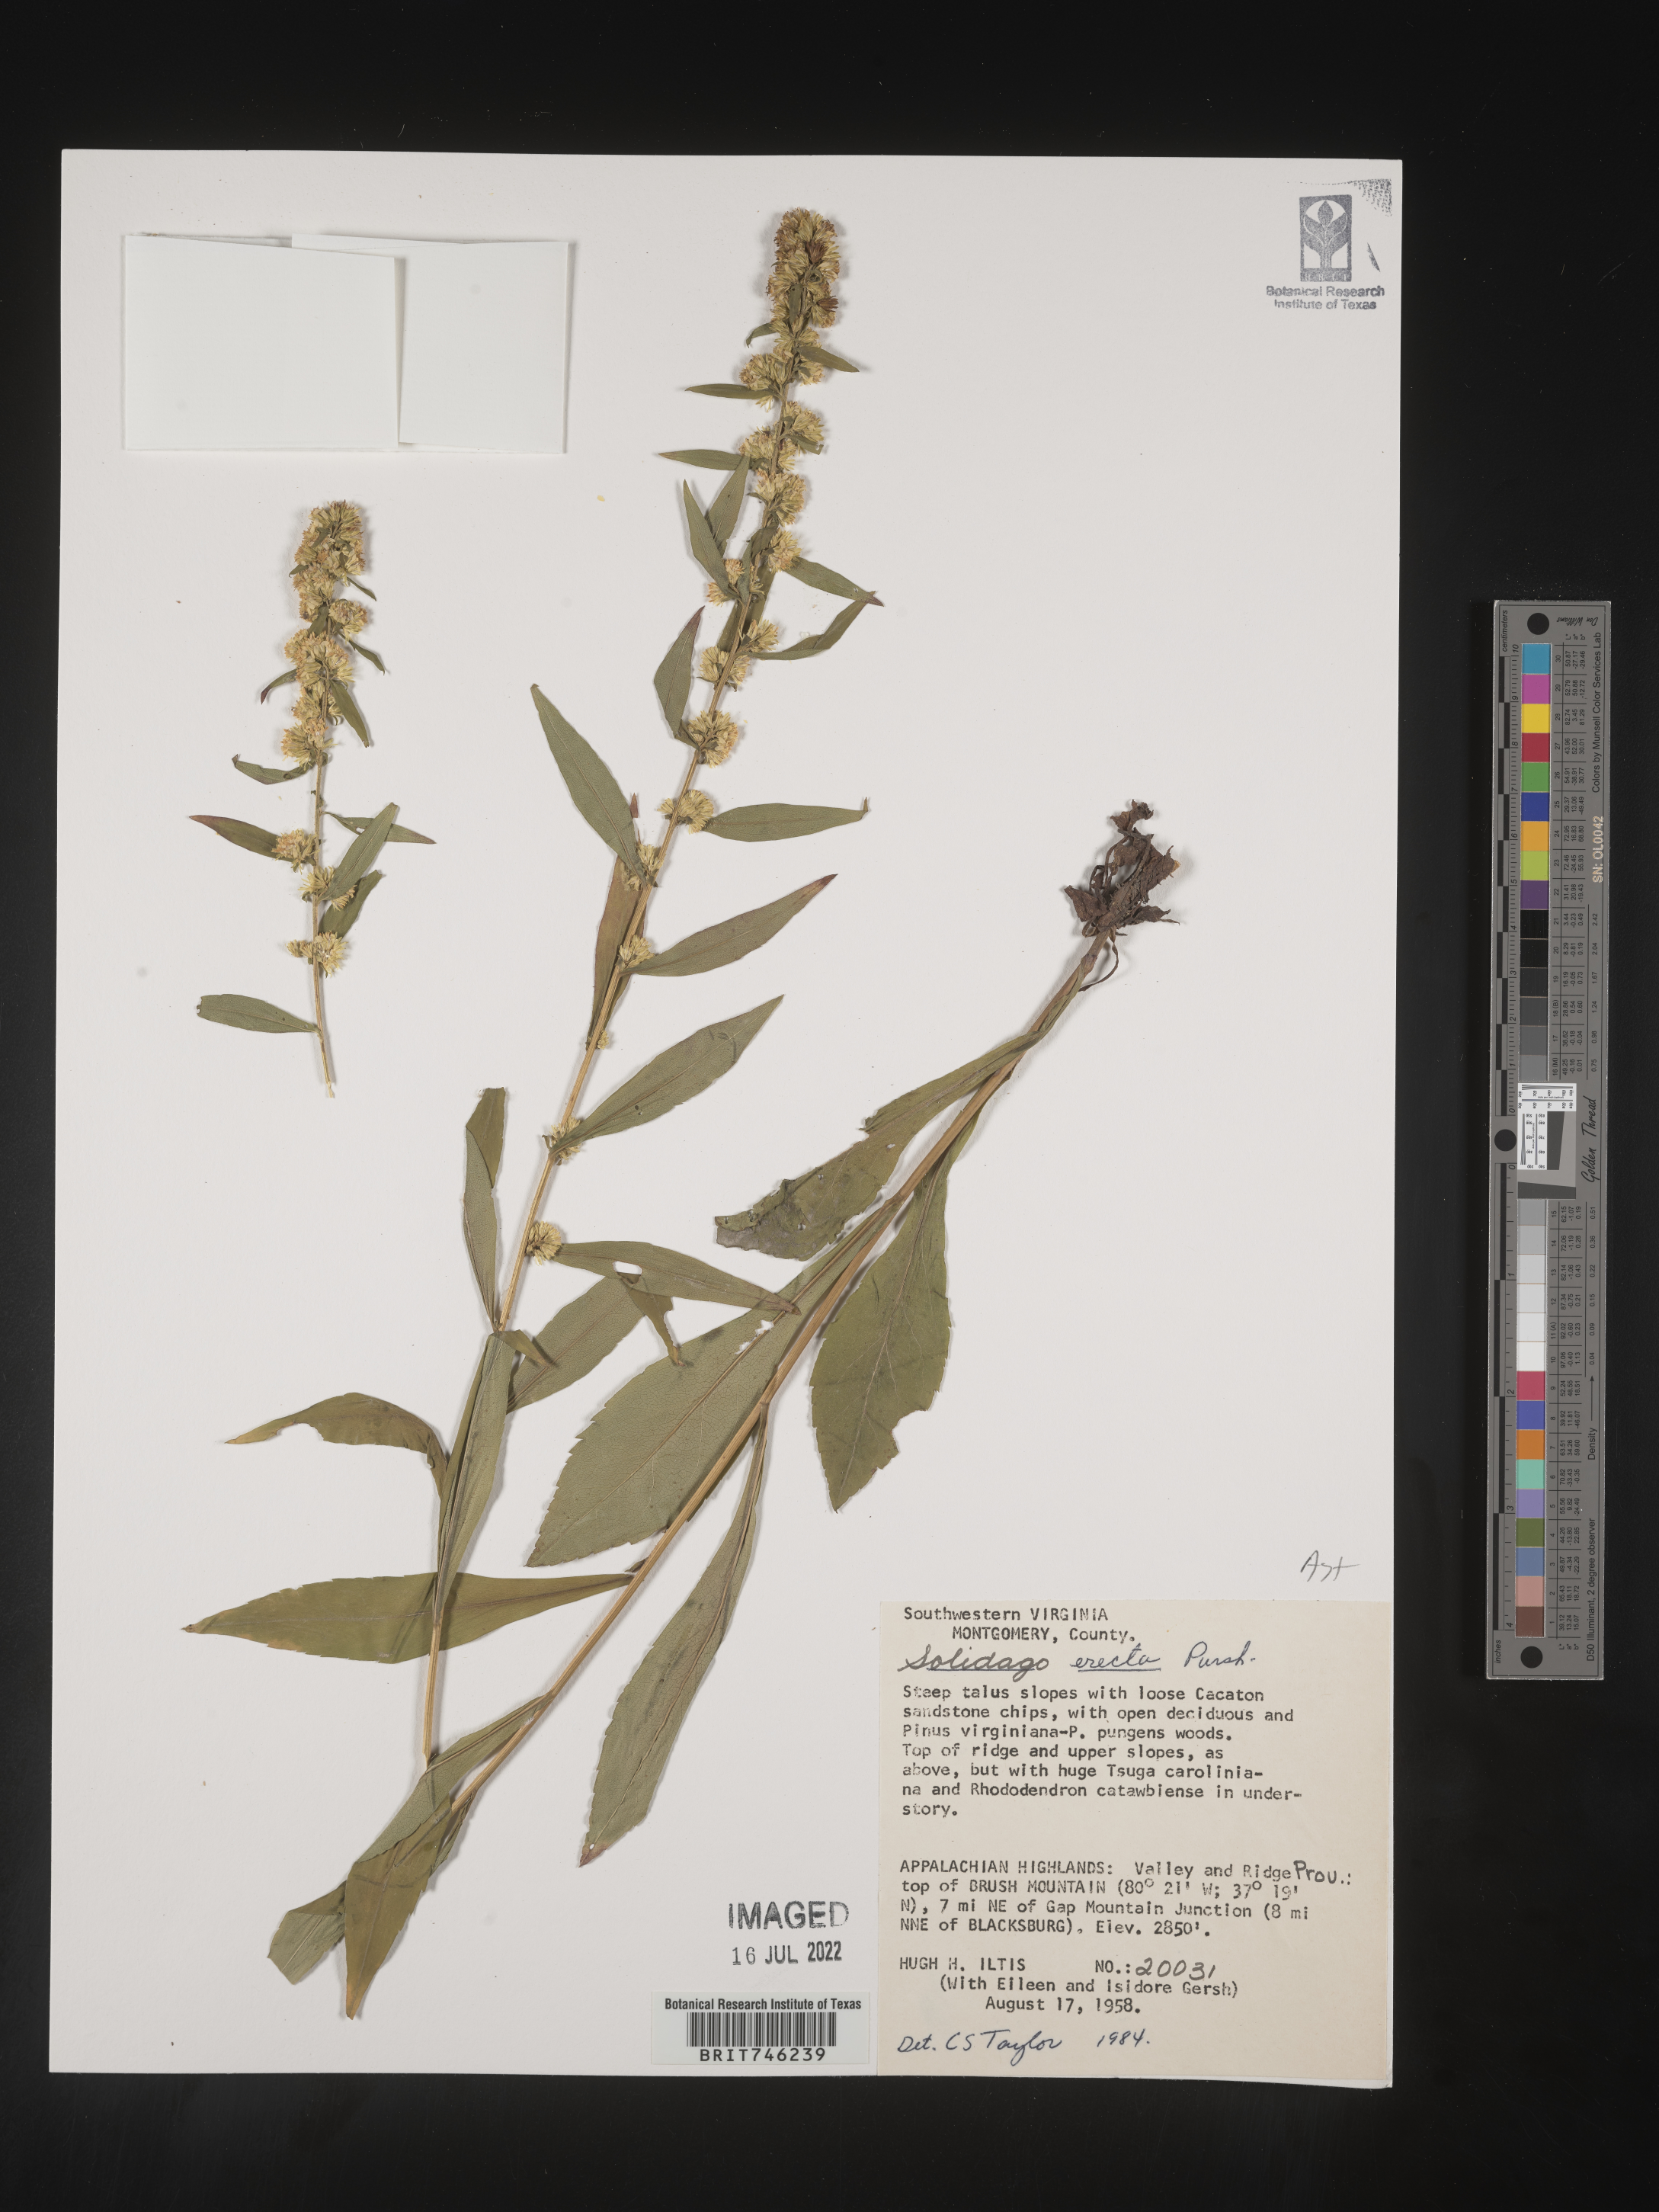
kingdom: Plantae
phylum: Tracheophyta
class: Magnoliopsida
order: Asterales
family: Asteraceae
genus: Solidago
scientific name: Solidago erecta
